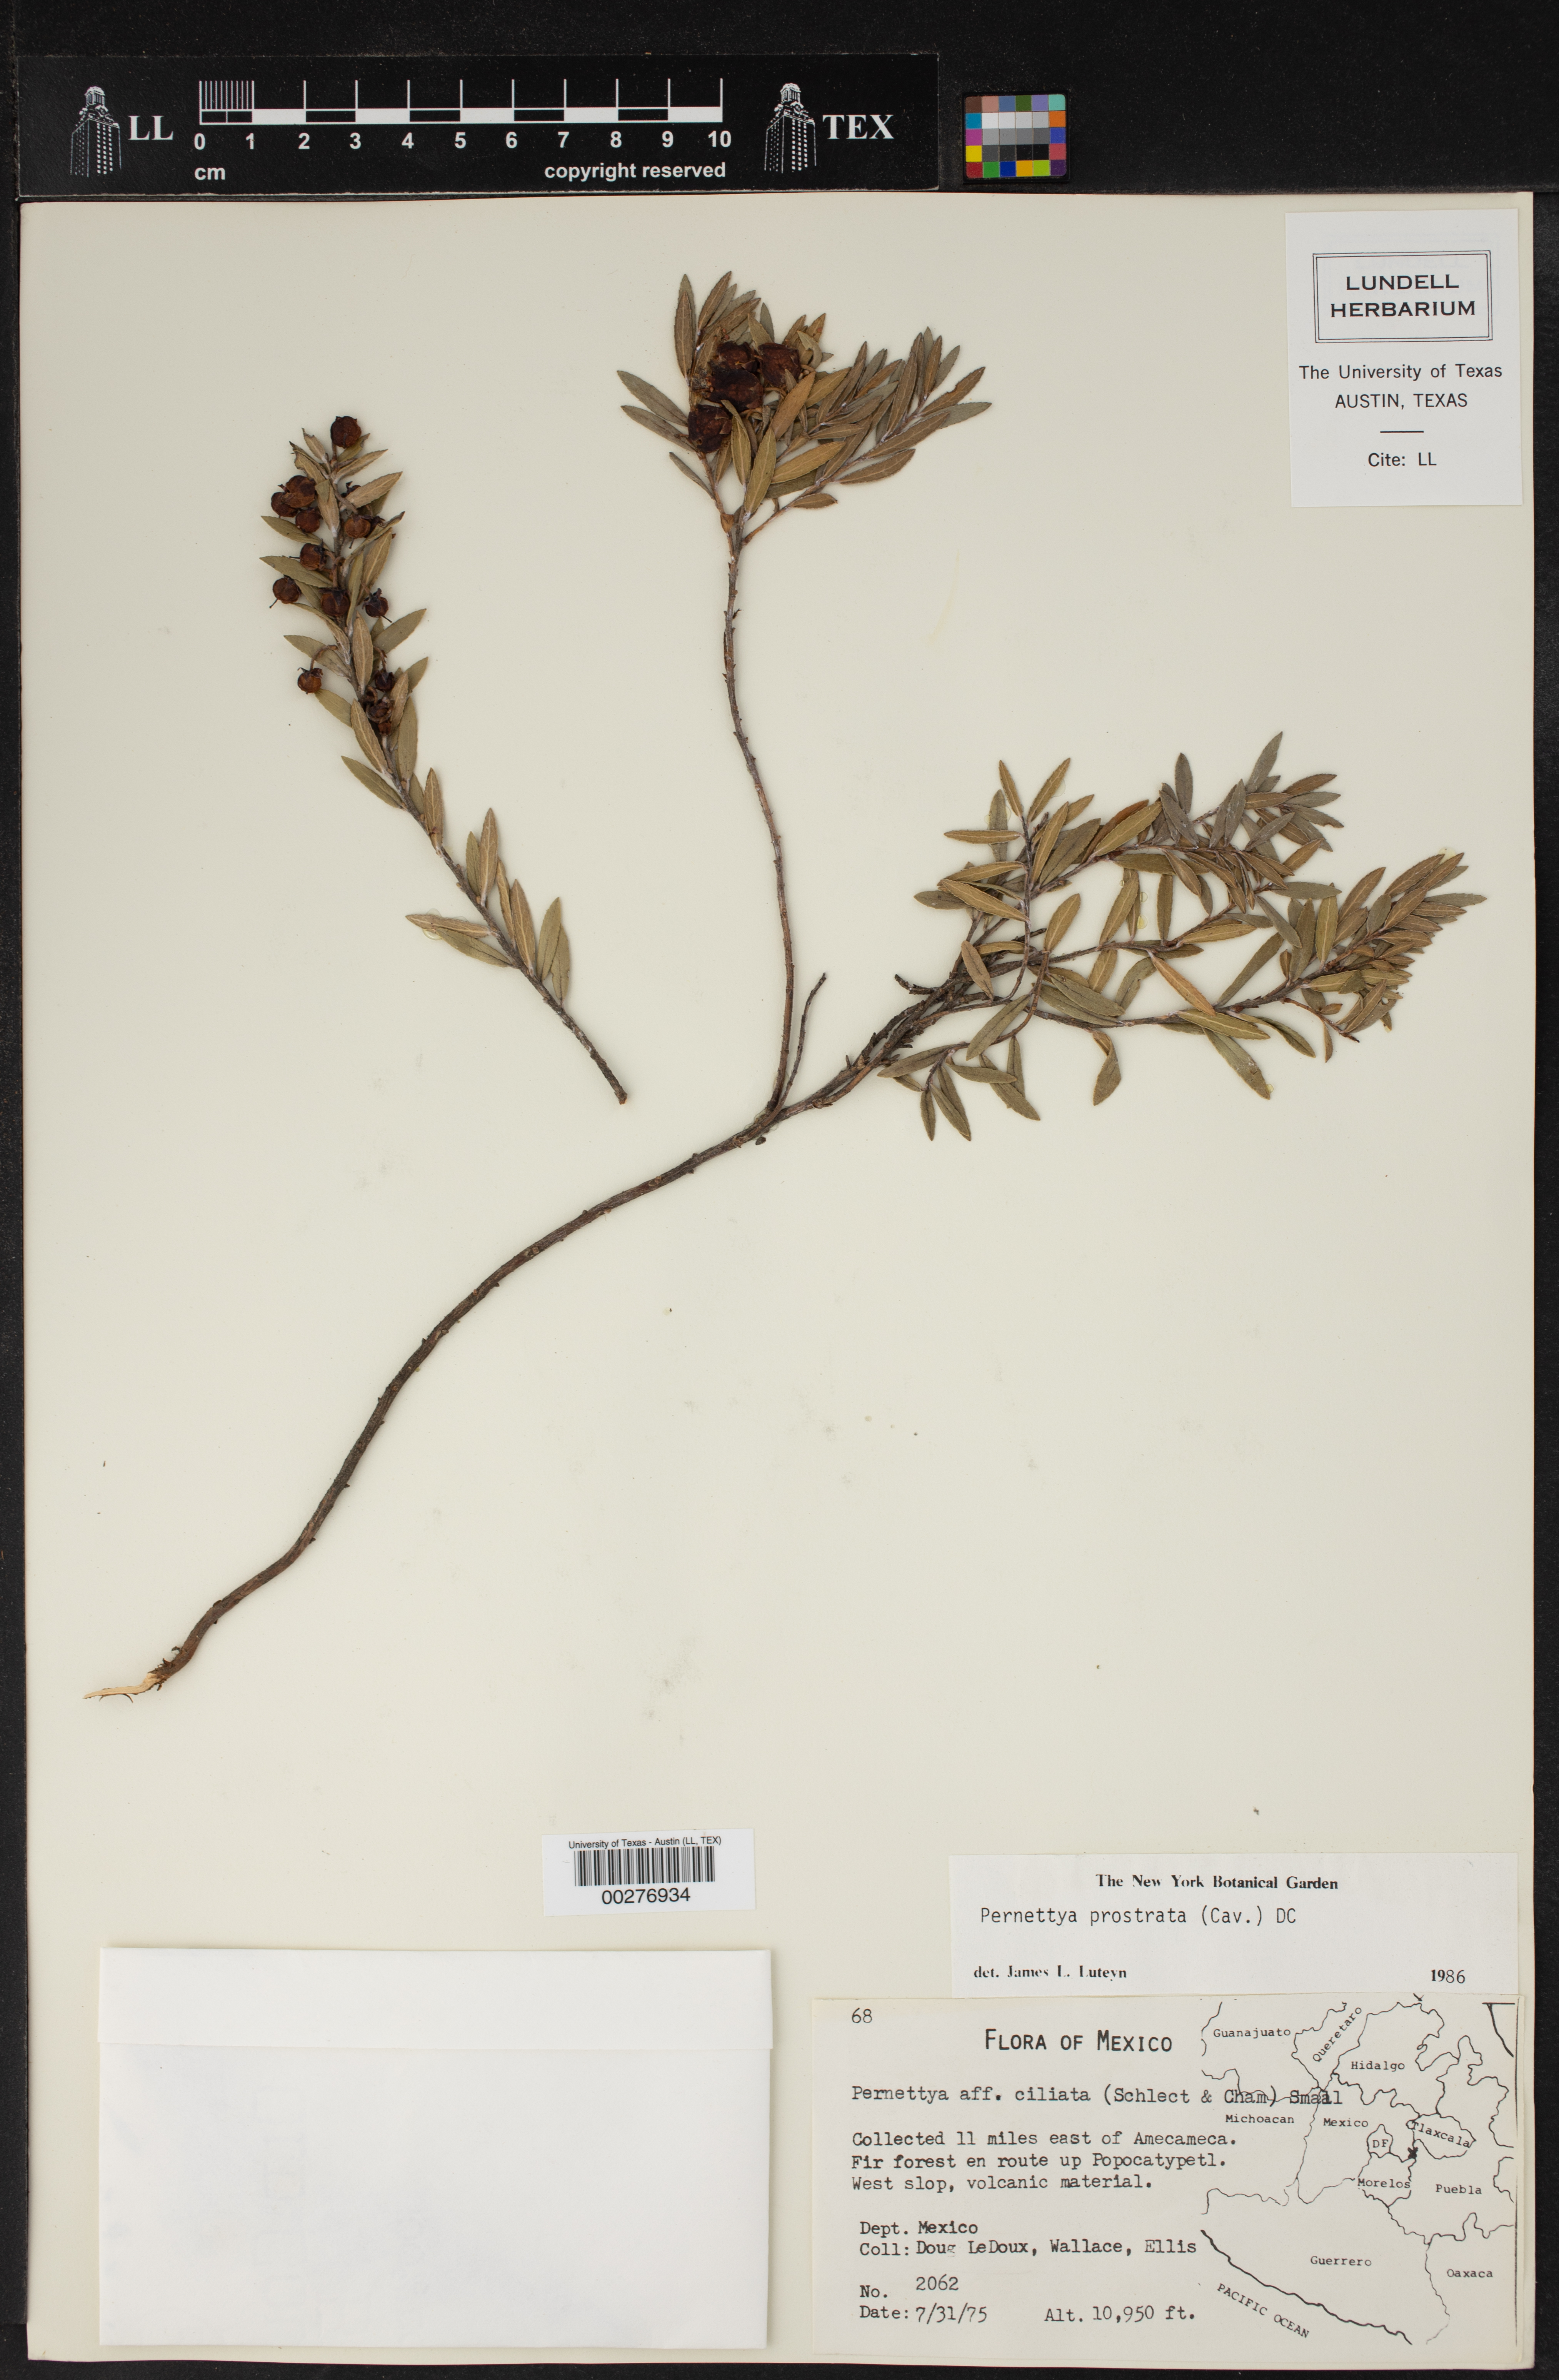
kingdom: Plantae
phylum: Tracheophyta
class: Magnoliopsida
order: Ericales
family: Ericaceae
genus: Gaultheria
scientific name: Gaultheria myrsinoides
